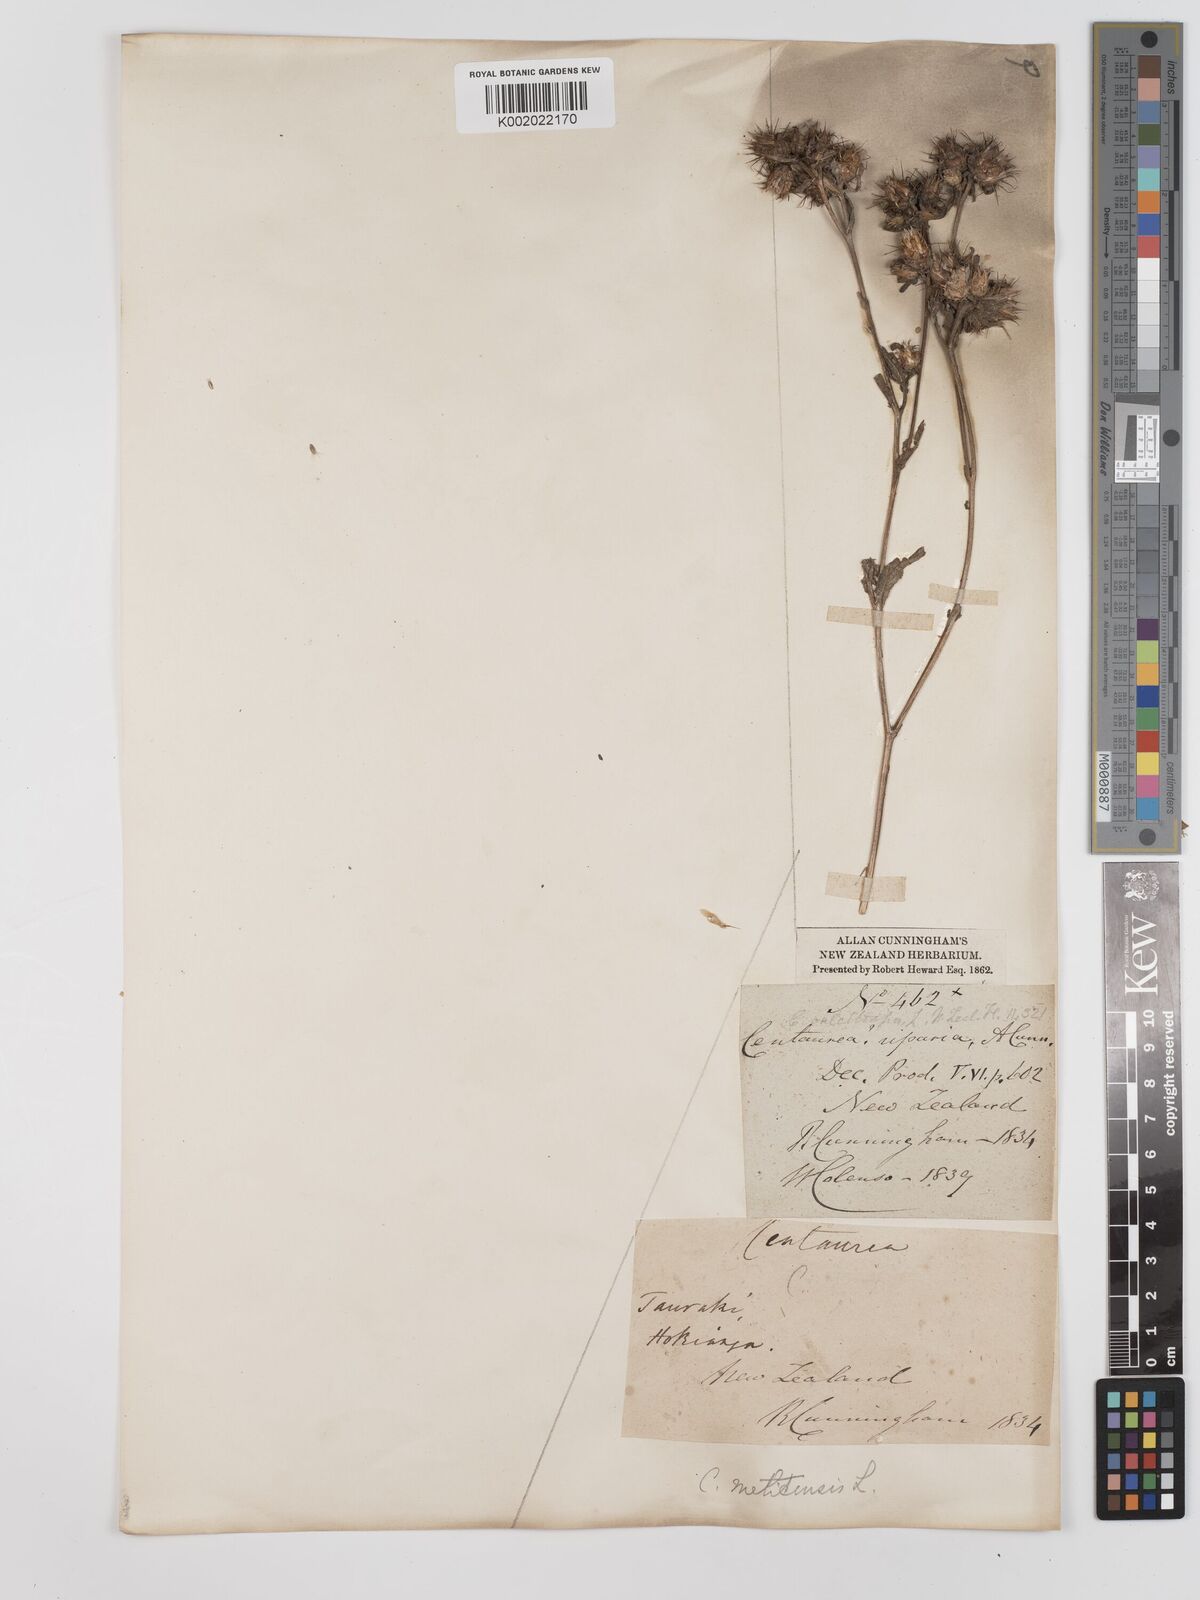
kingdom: Plantae
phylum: Tracheophyta
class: Magnoliopsida
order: Asterales
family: Asteraceae
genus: Centaurea
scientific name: Centaurea melitensis
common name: Maltese star-thistle
